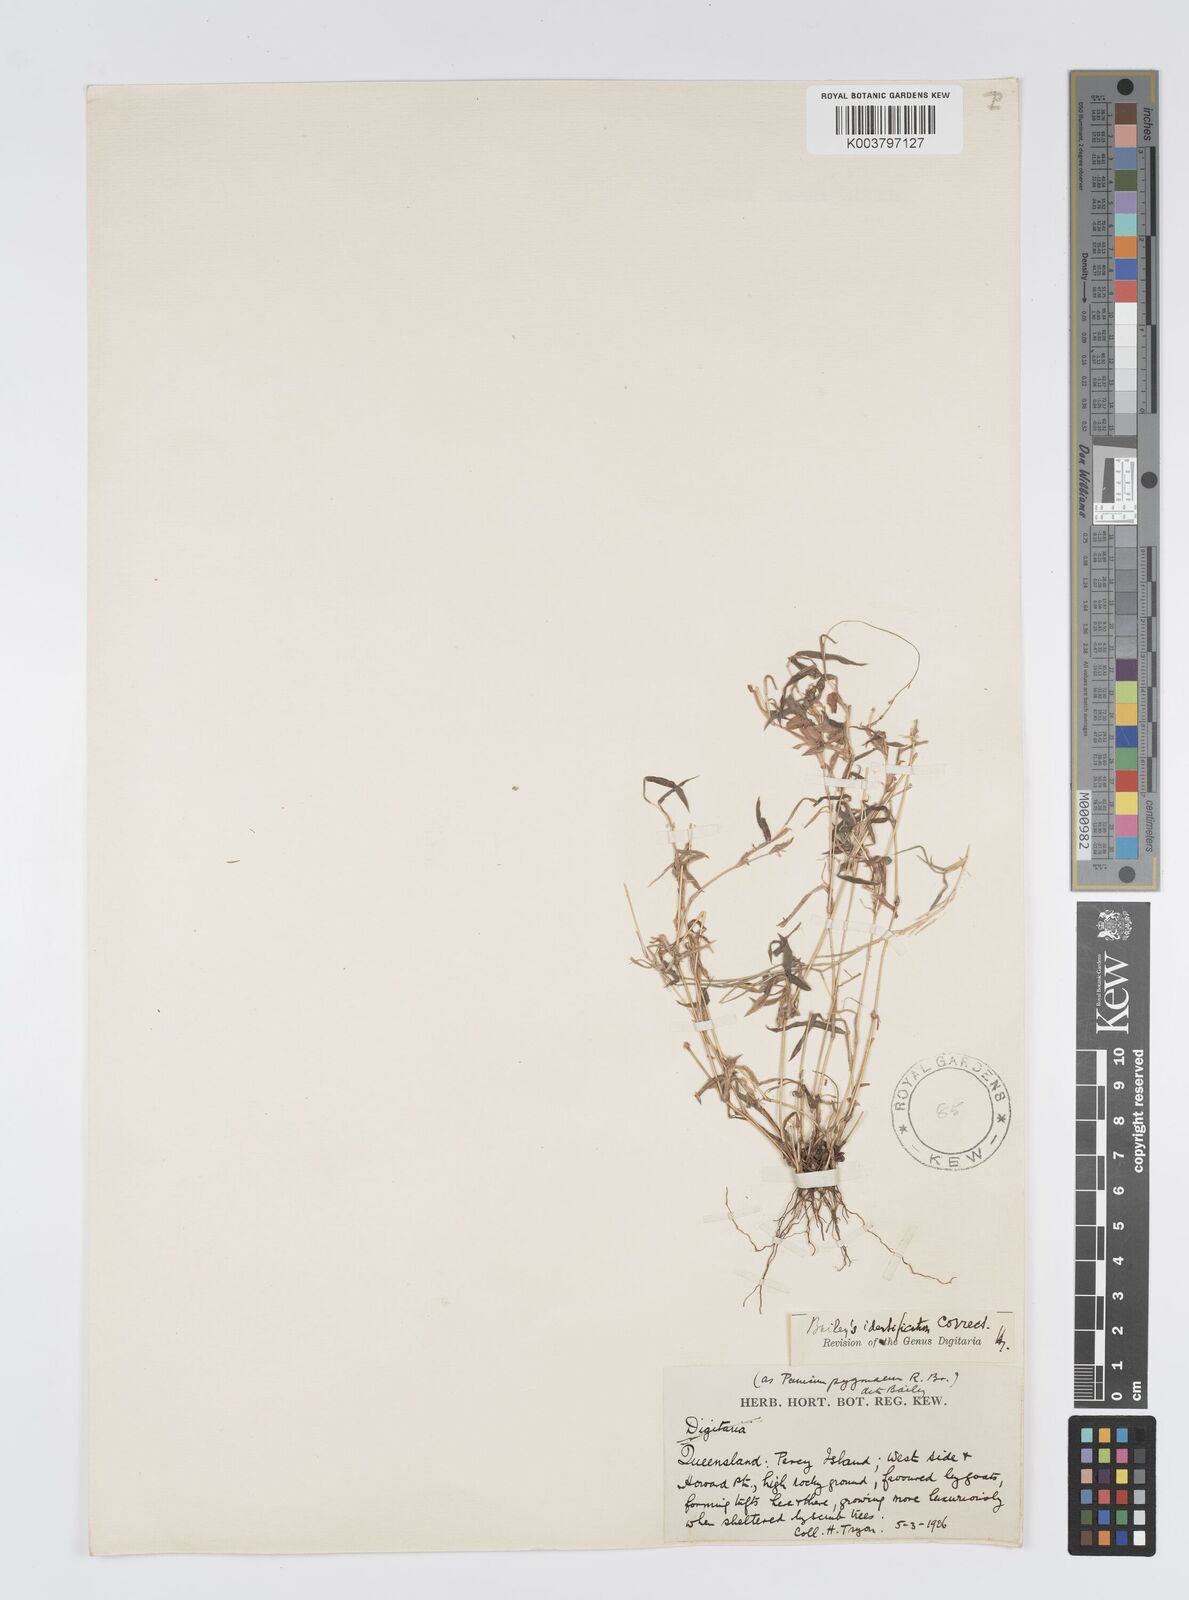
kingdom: Plantae
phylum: Tracheophyta
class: Liliopsida
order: Poales
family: Poaceae
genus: Digitaria
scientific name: Digitaria diffusa
